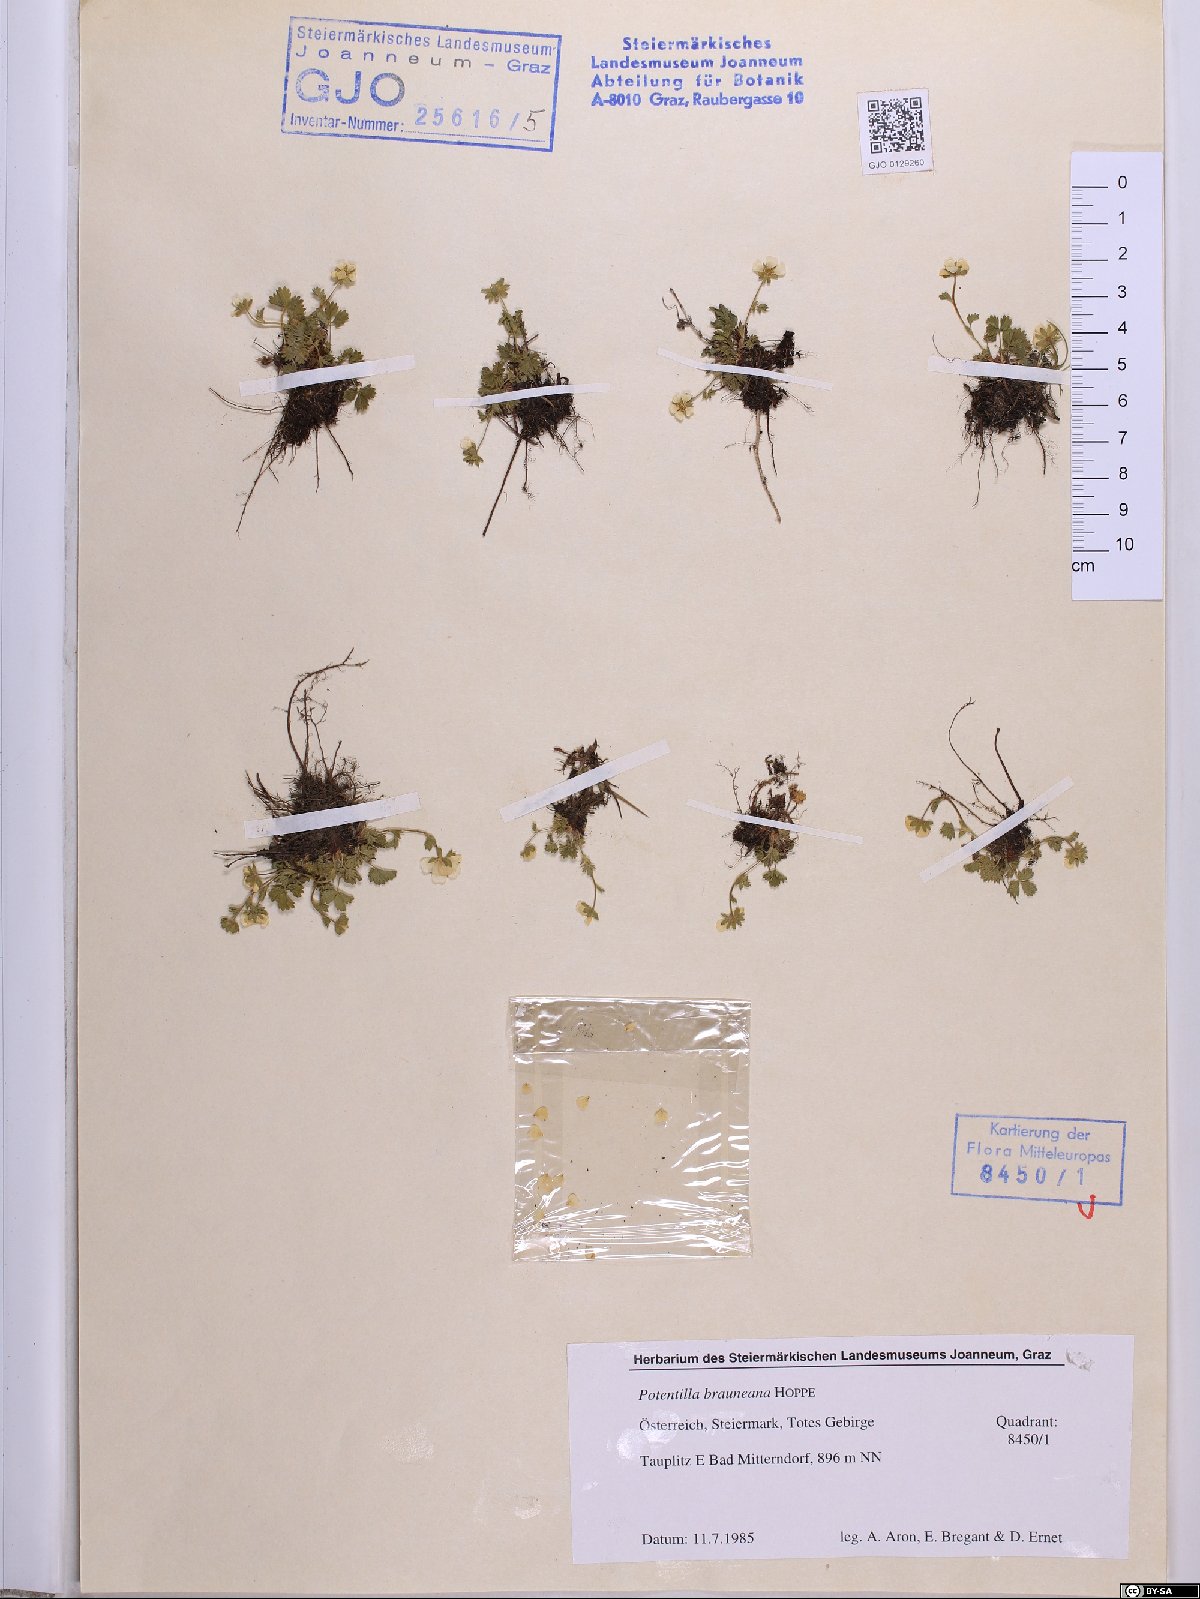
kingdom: Plantae
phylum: Tracheophyta
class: Magnoliopsida
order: Rosales
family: Rosaceae
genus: Potentilla
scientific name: Potentilla brauneana
